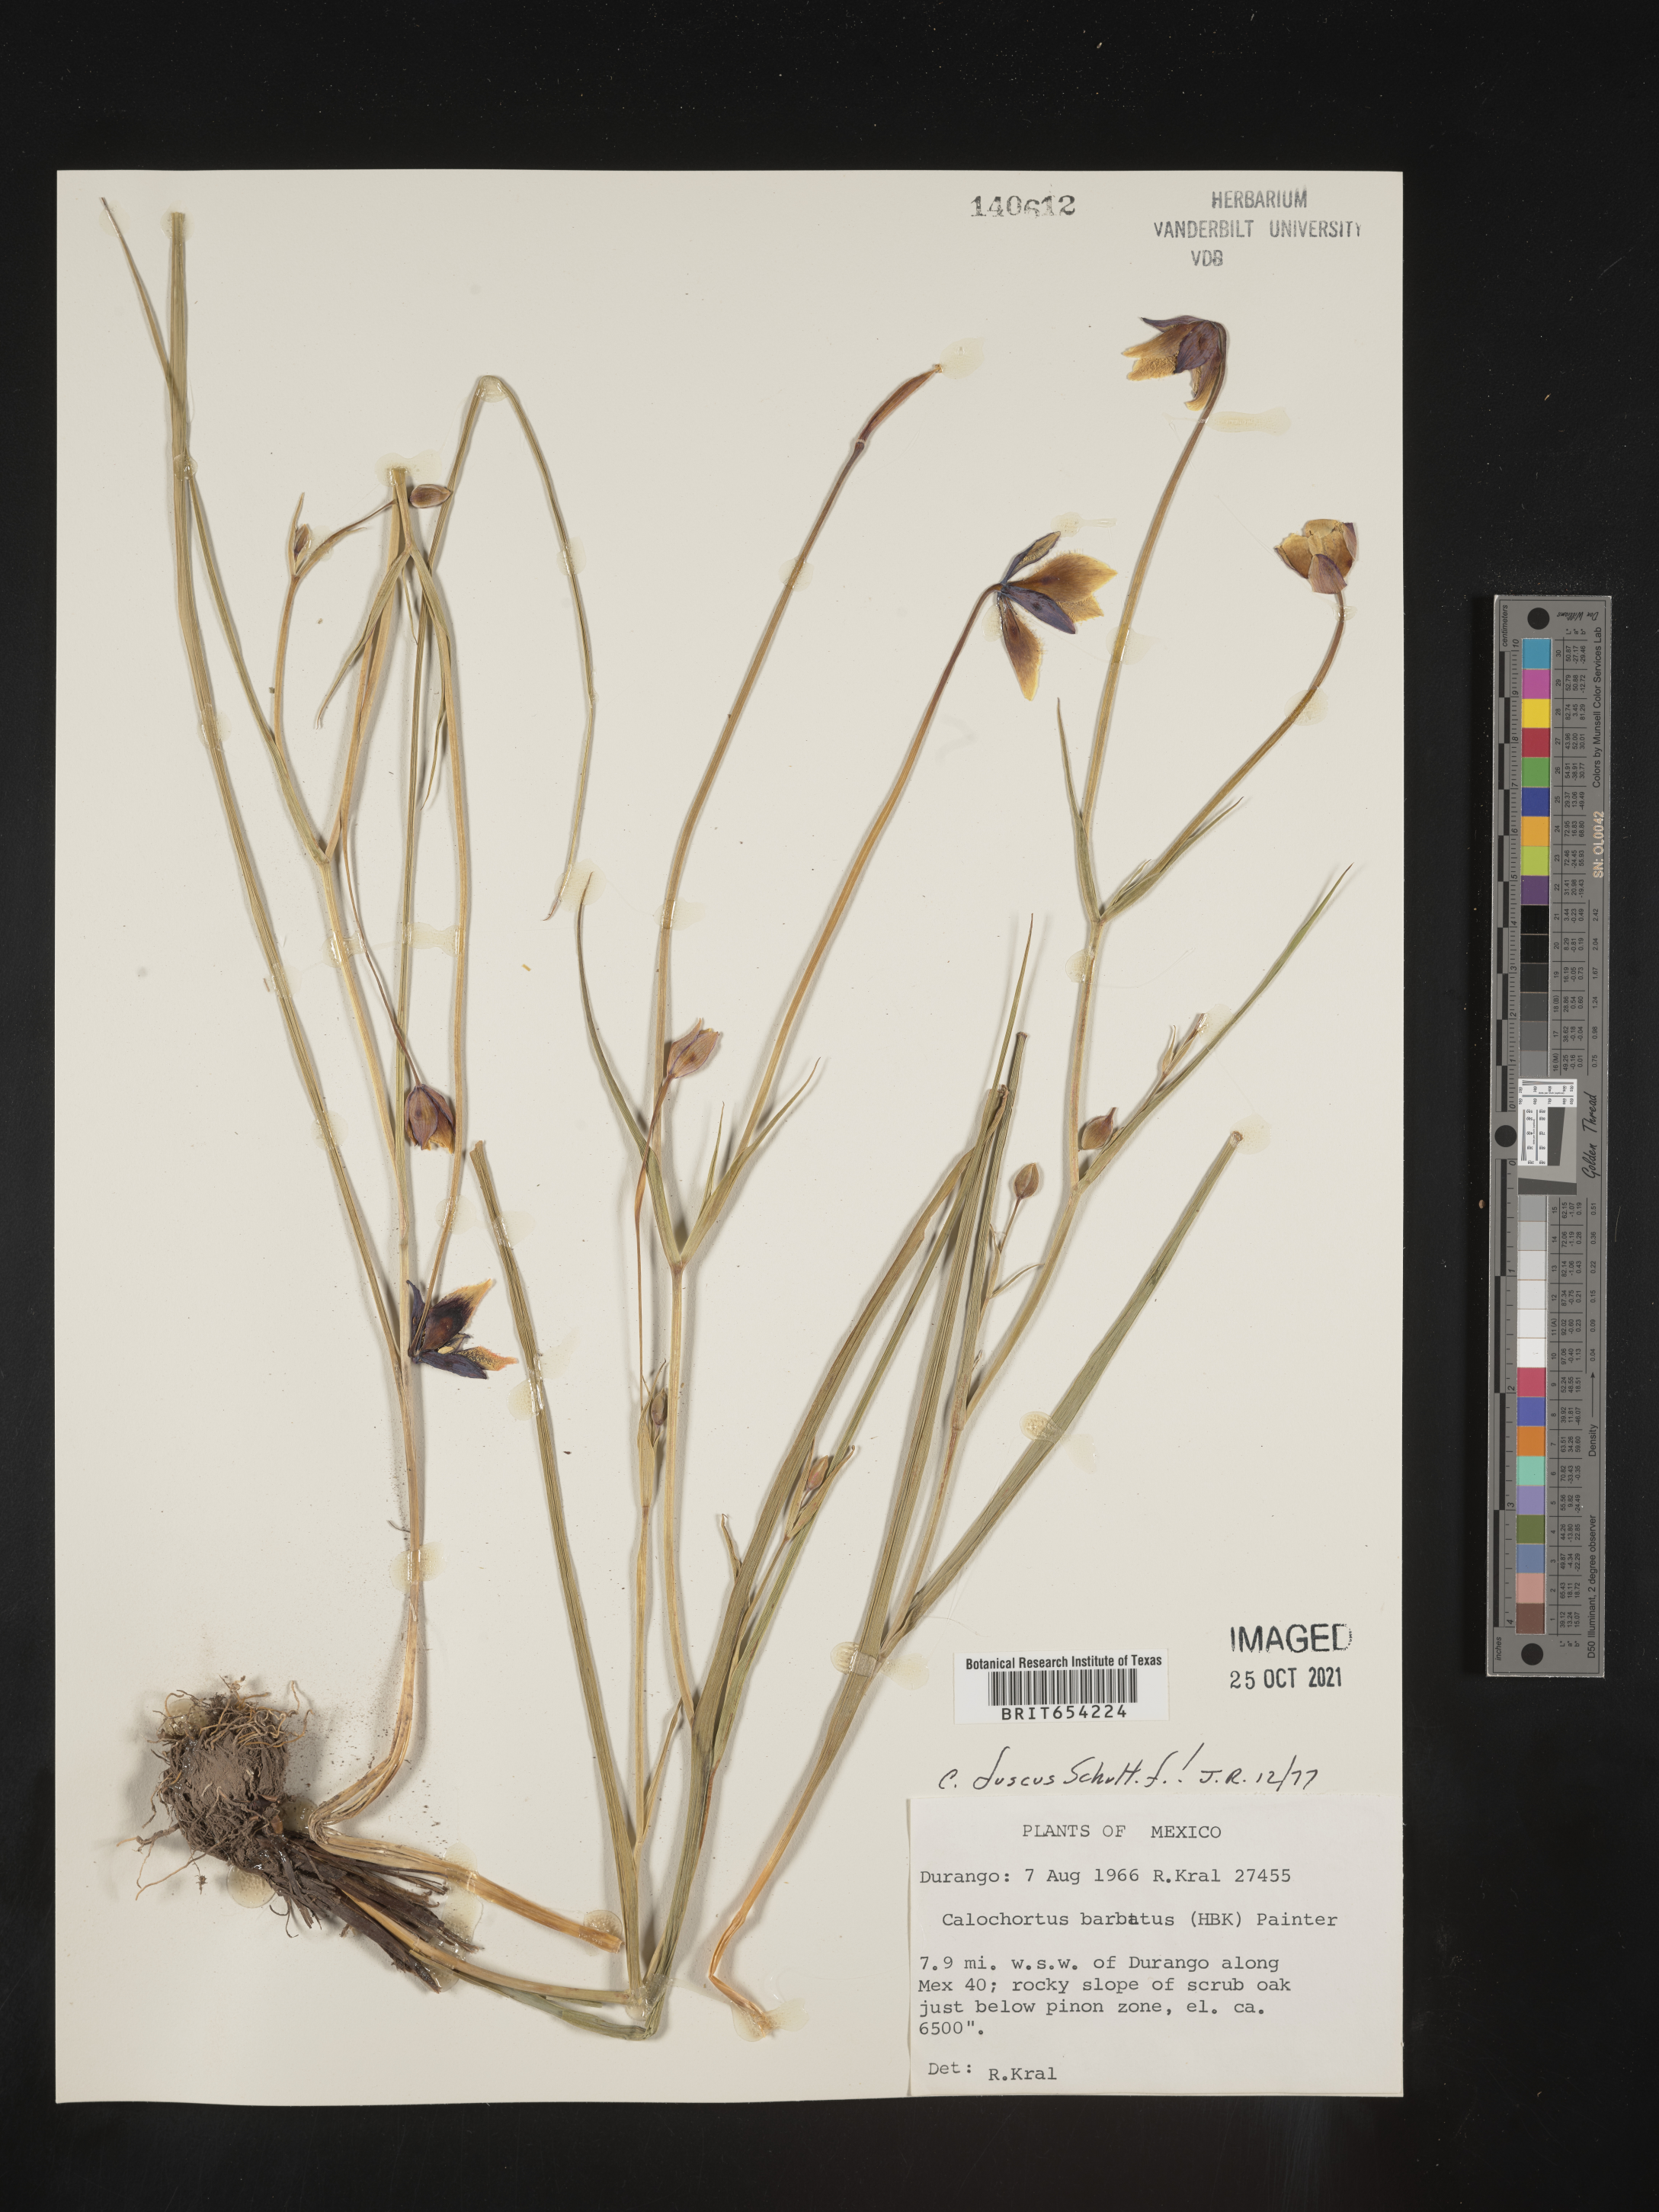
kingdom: Plantae
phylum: Tracheophyta
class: Liliopsida
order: Liliales
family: Liliaceae
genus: Calochortus
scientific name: Calochortus
